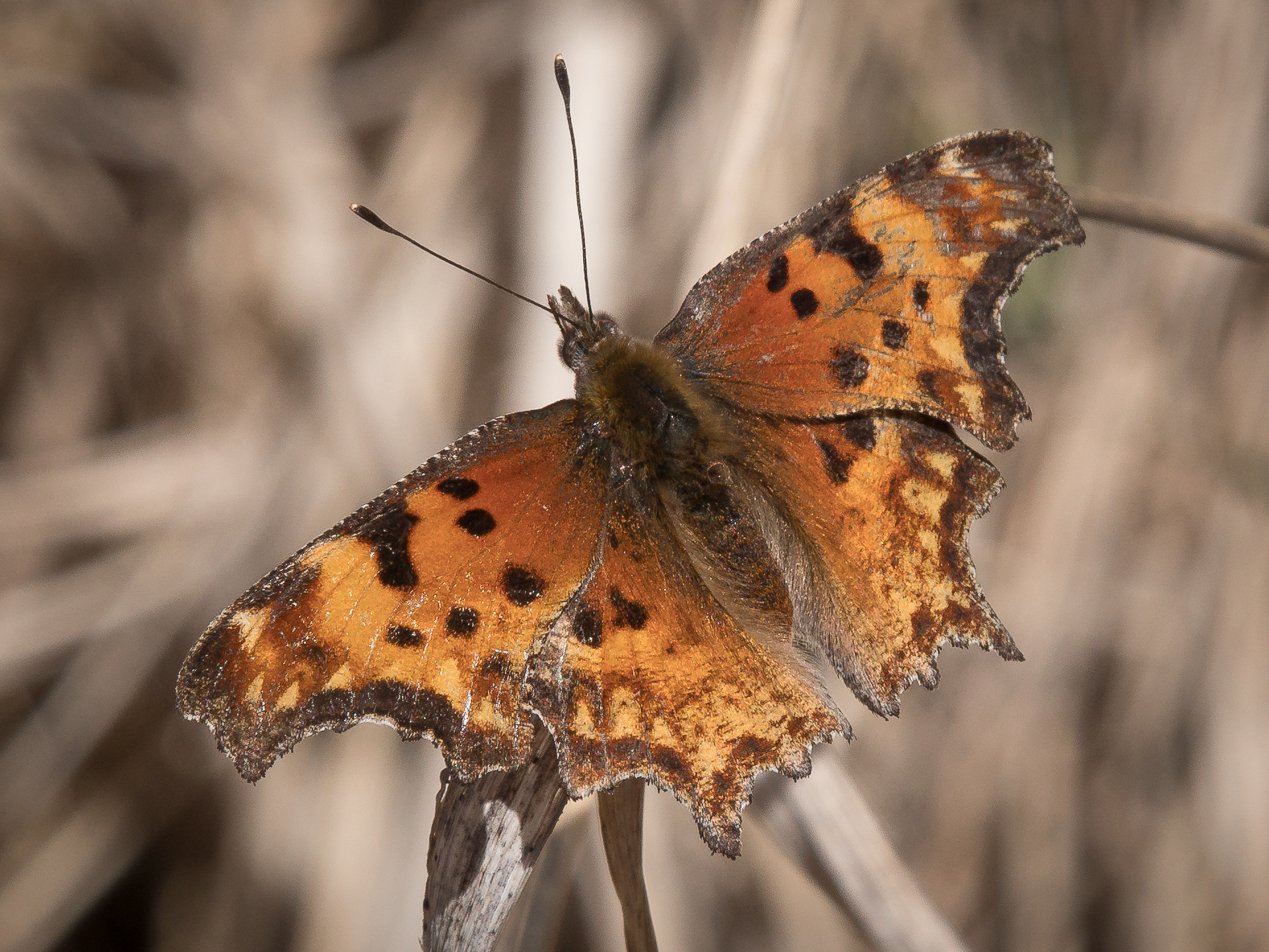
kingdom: Animalia
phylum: Arthropoda
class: Insecta
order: Lepidoptera
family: Nymphalidae
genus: Polygonia
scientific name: Polygonia gracilis
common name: Hoary Comma
